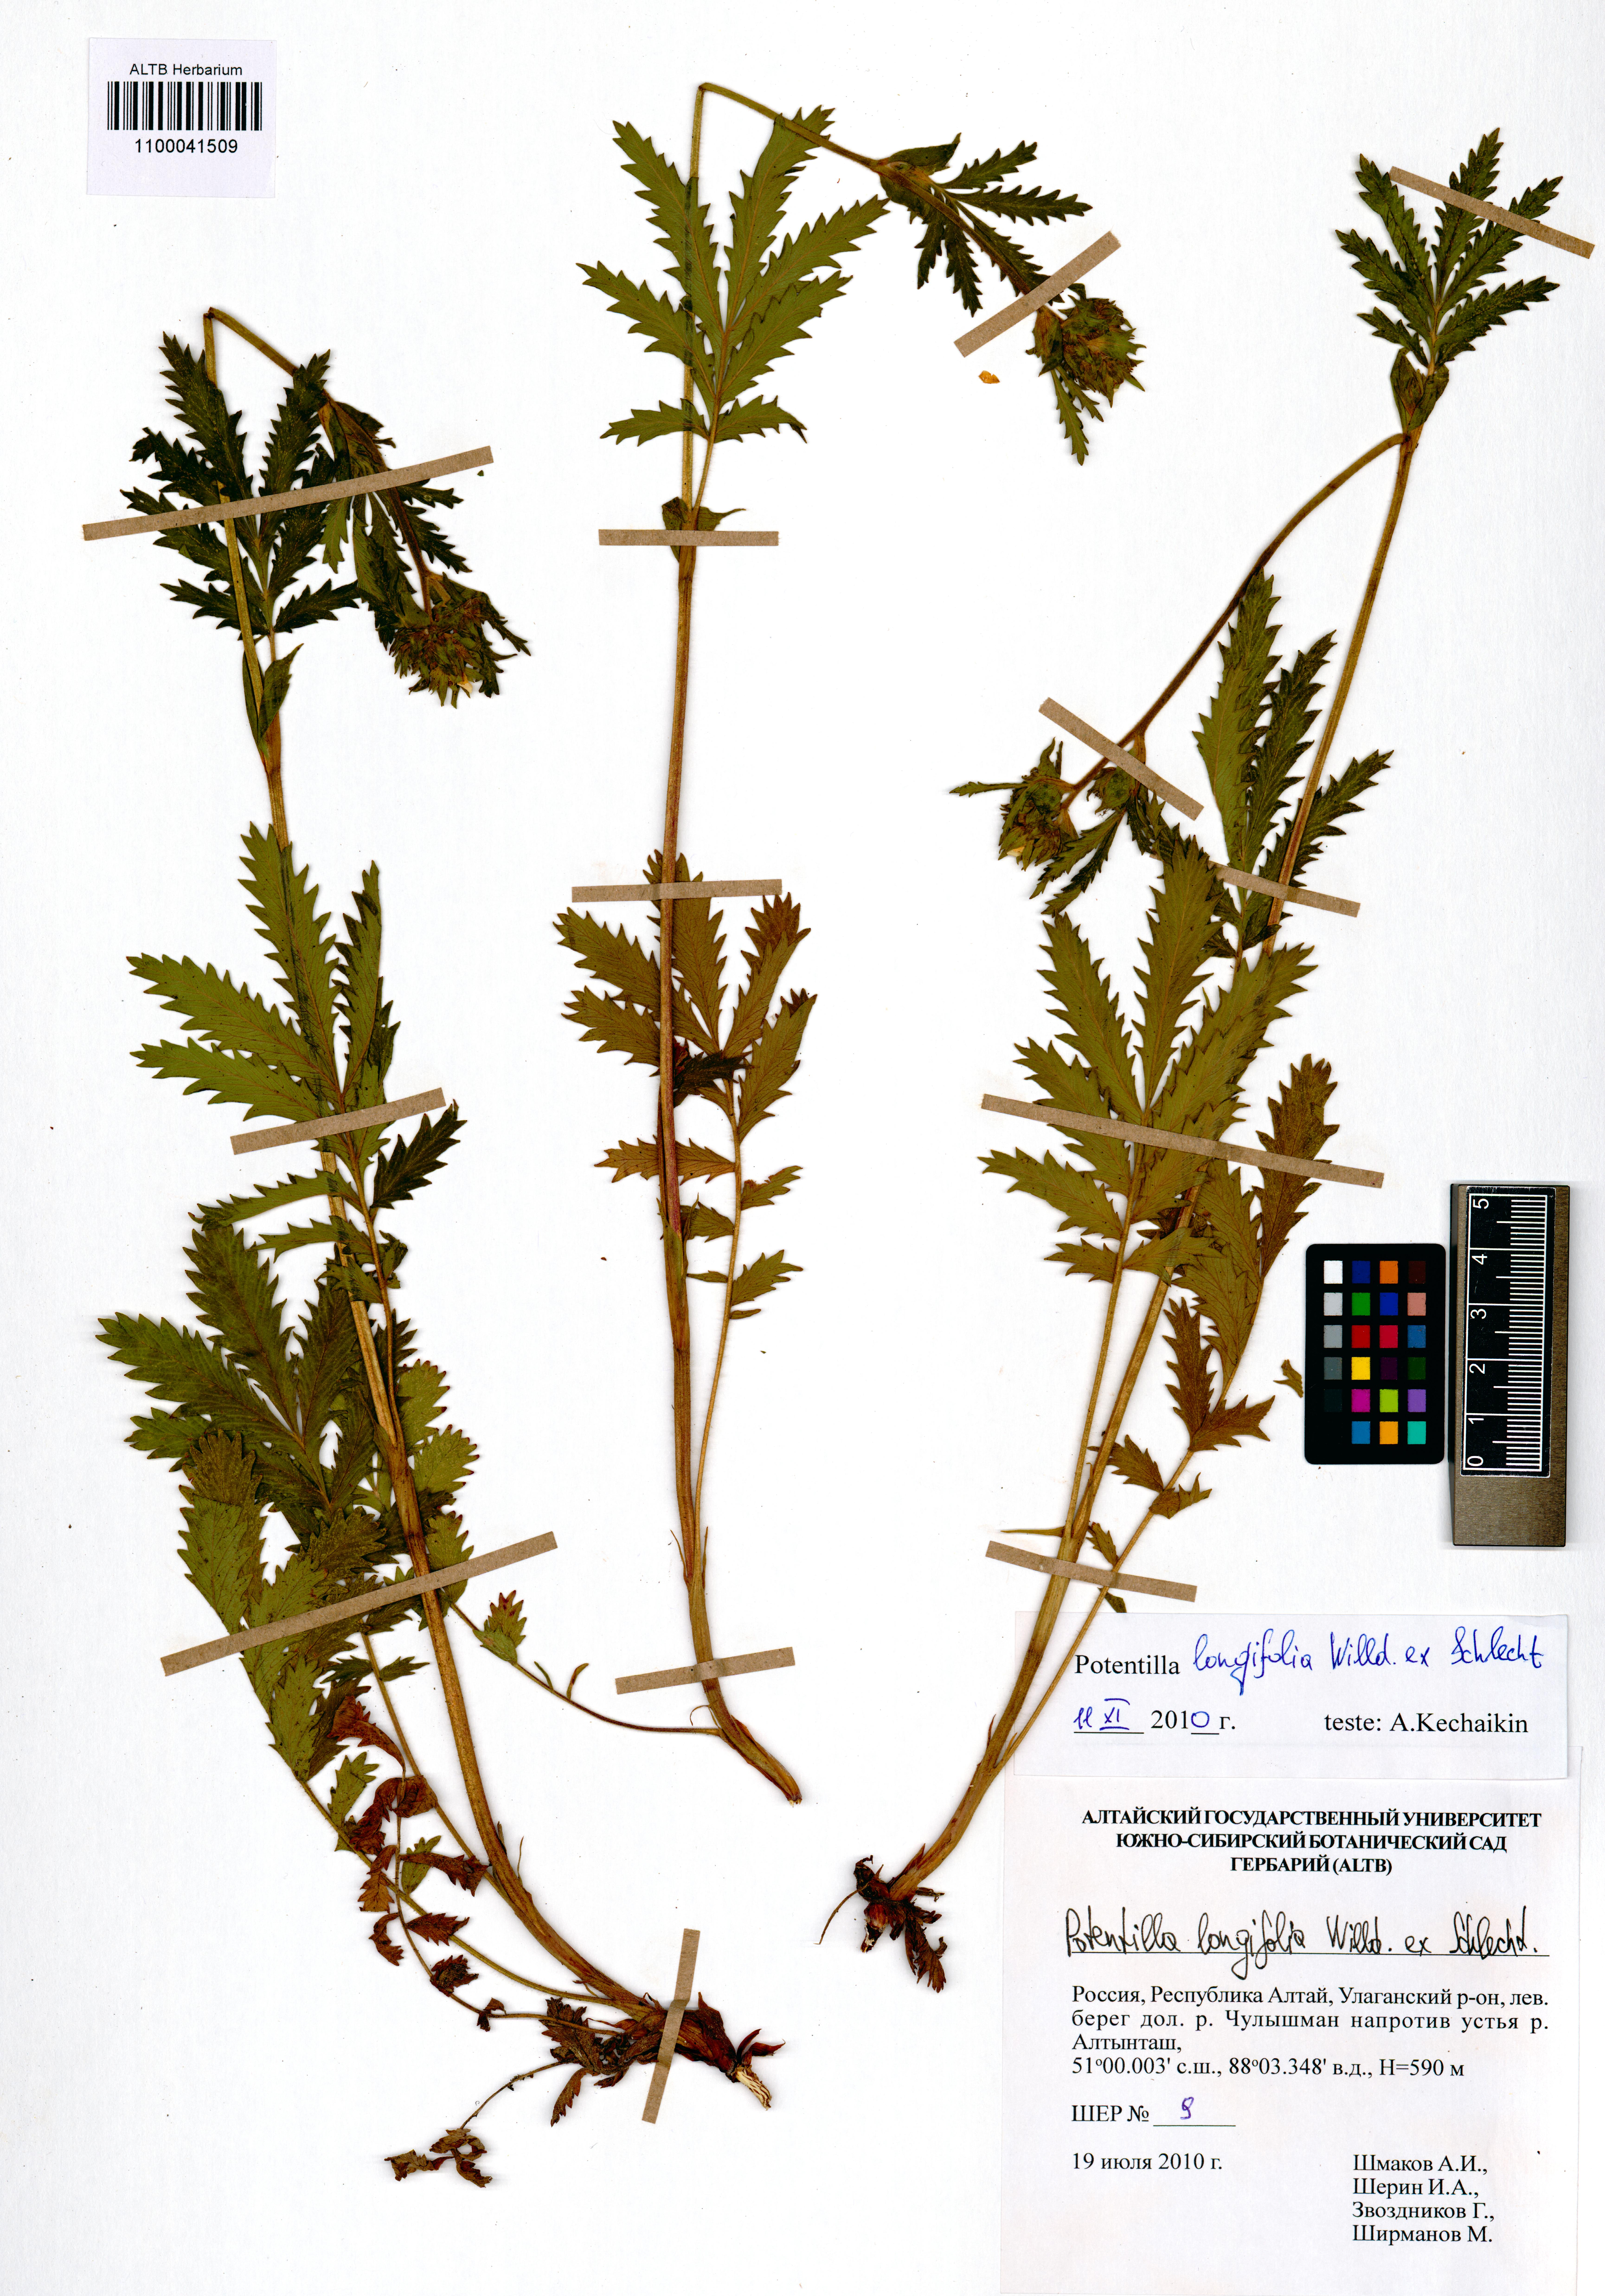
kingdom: Plantae
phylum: Tracheophyta
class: Magnoliopsida
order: Rosales
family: Rosaceae
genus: Potentilla
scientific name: Potentilla longifolia
